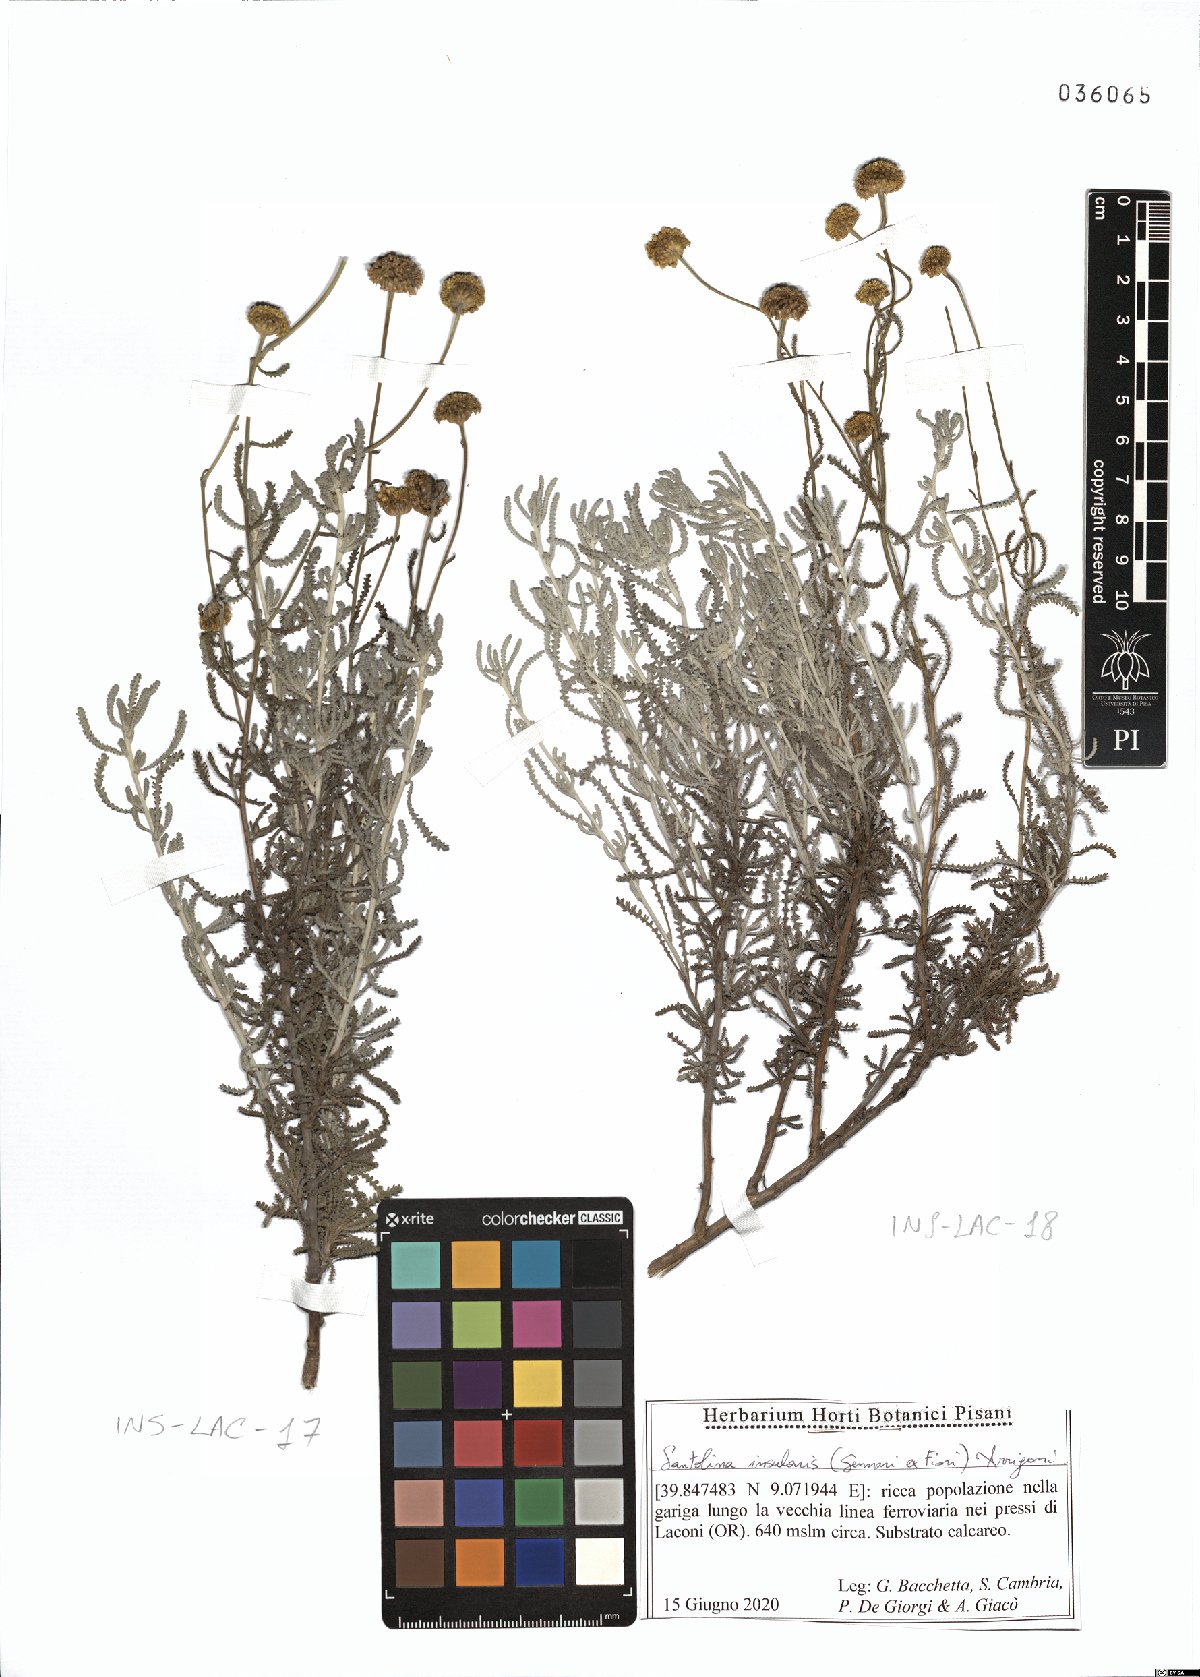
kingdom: Plantae
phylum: Tracheophyta
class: Magnoliopsida
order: Asterales
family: Asteraceae
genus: Santolina
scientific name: Santolina insularis
